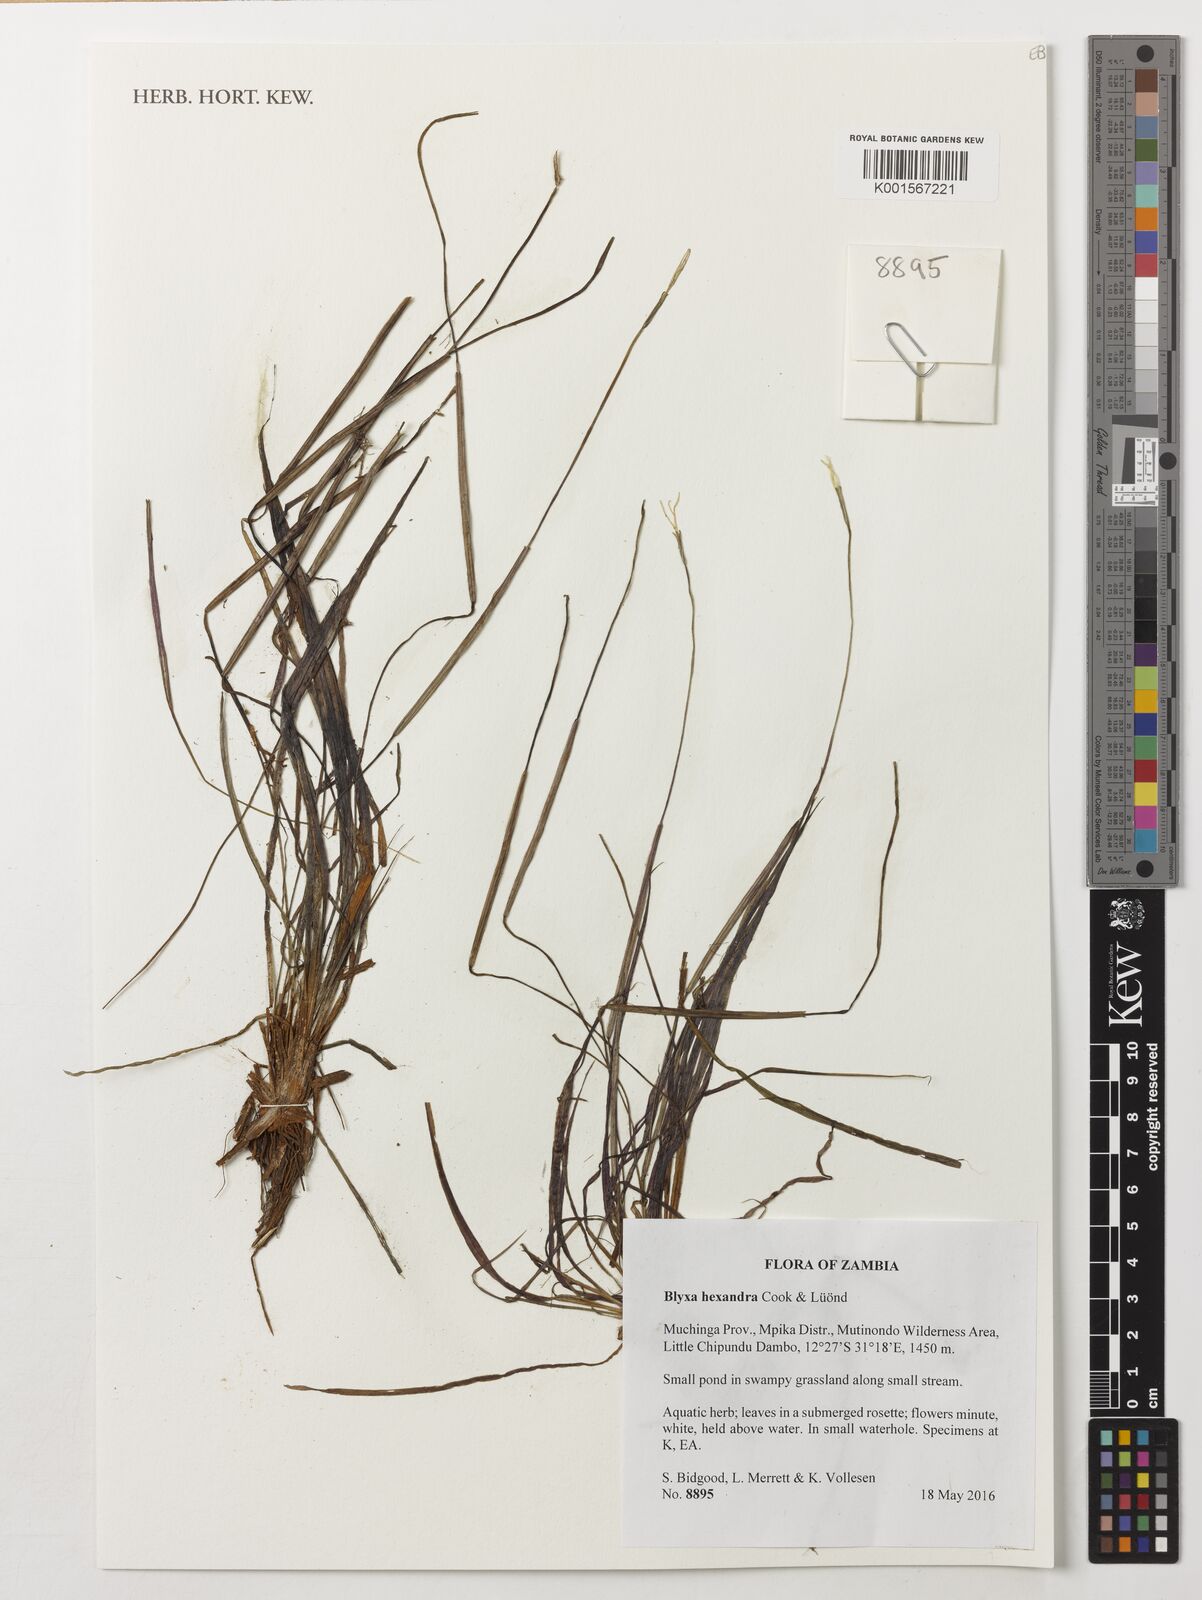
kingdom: Plantae
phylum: Tracheophyta
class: Liliopsida
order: Alismatales
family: Hydrocharitaceae
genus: Blyxa
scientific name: Blyxa hexandra
